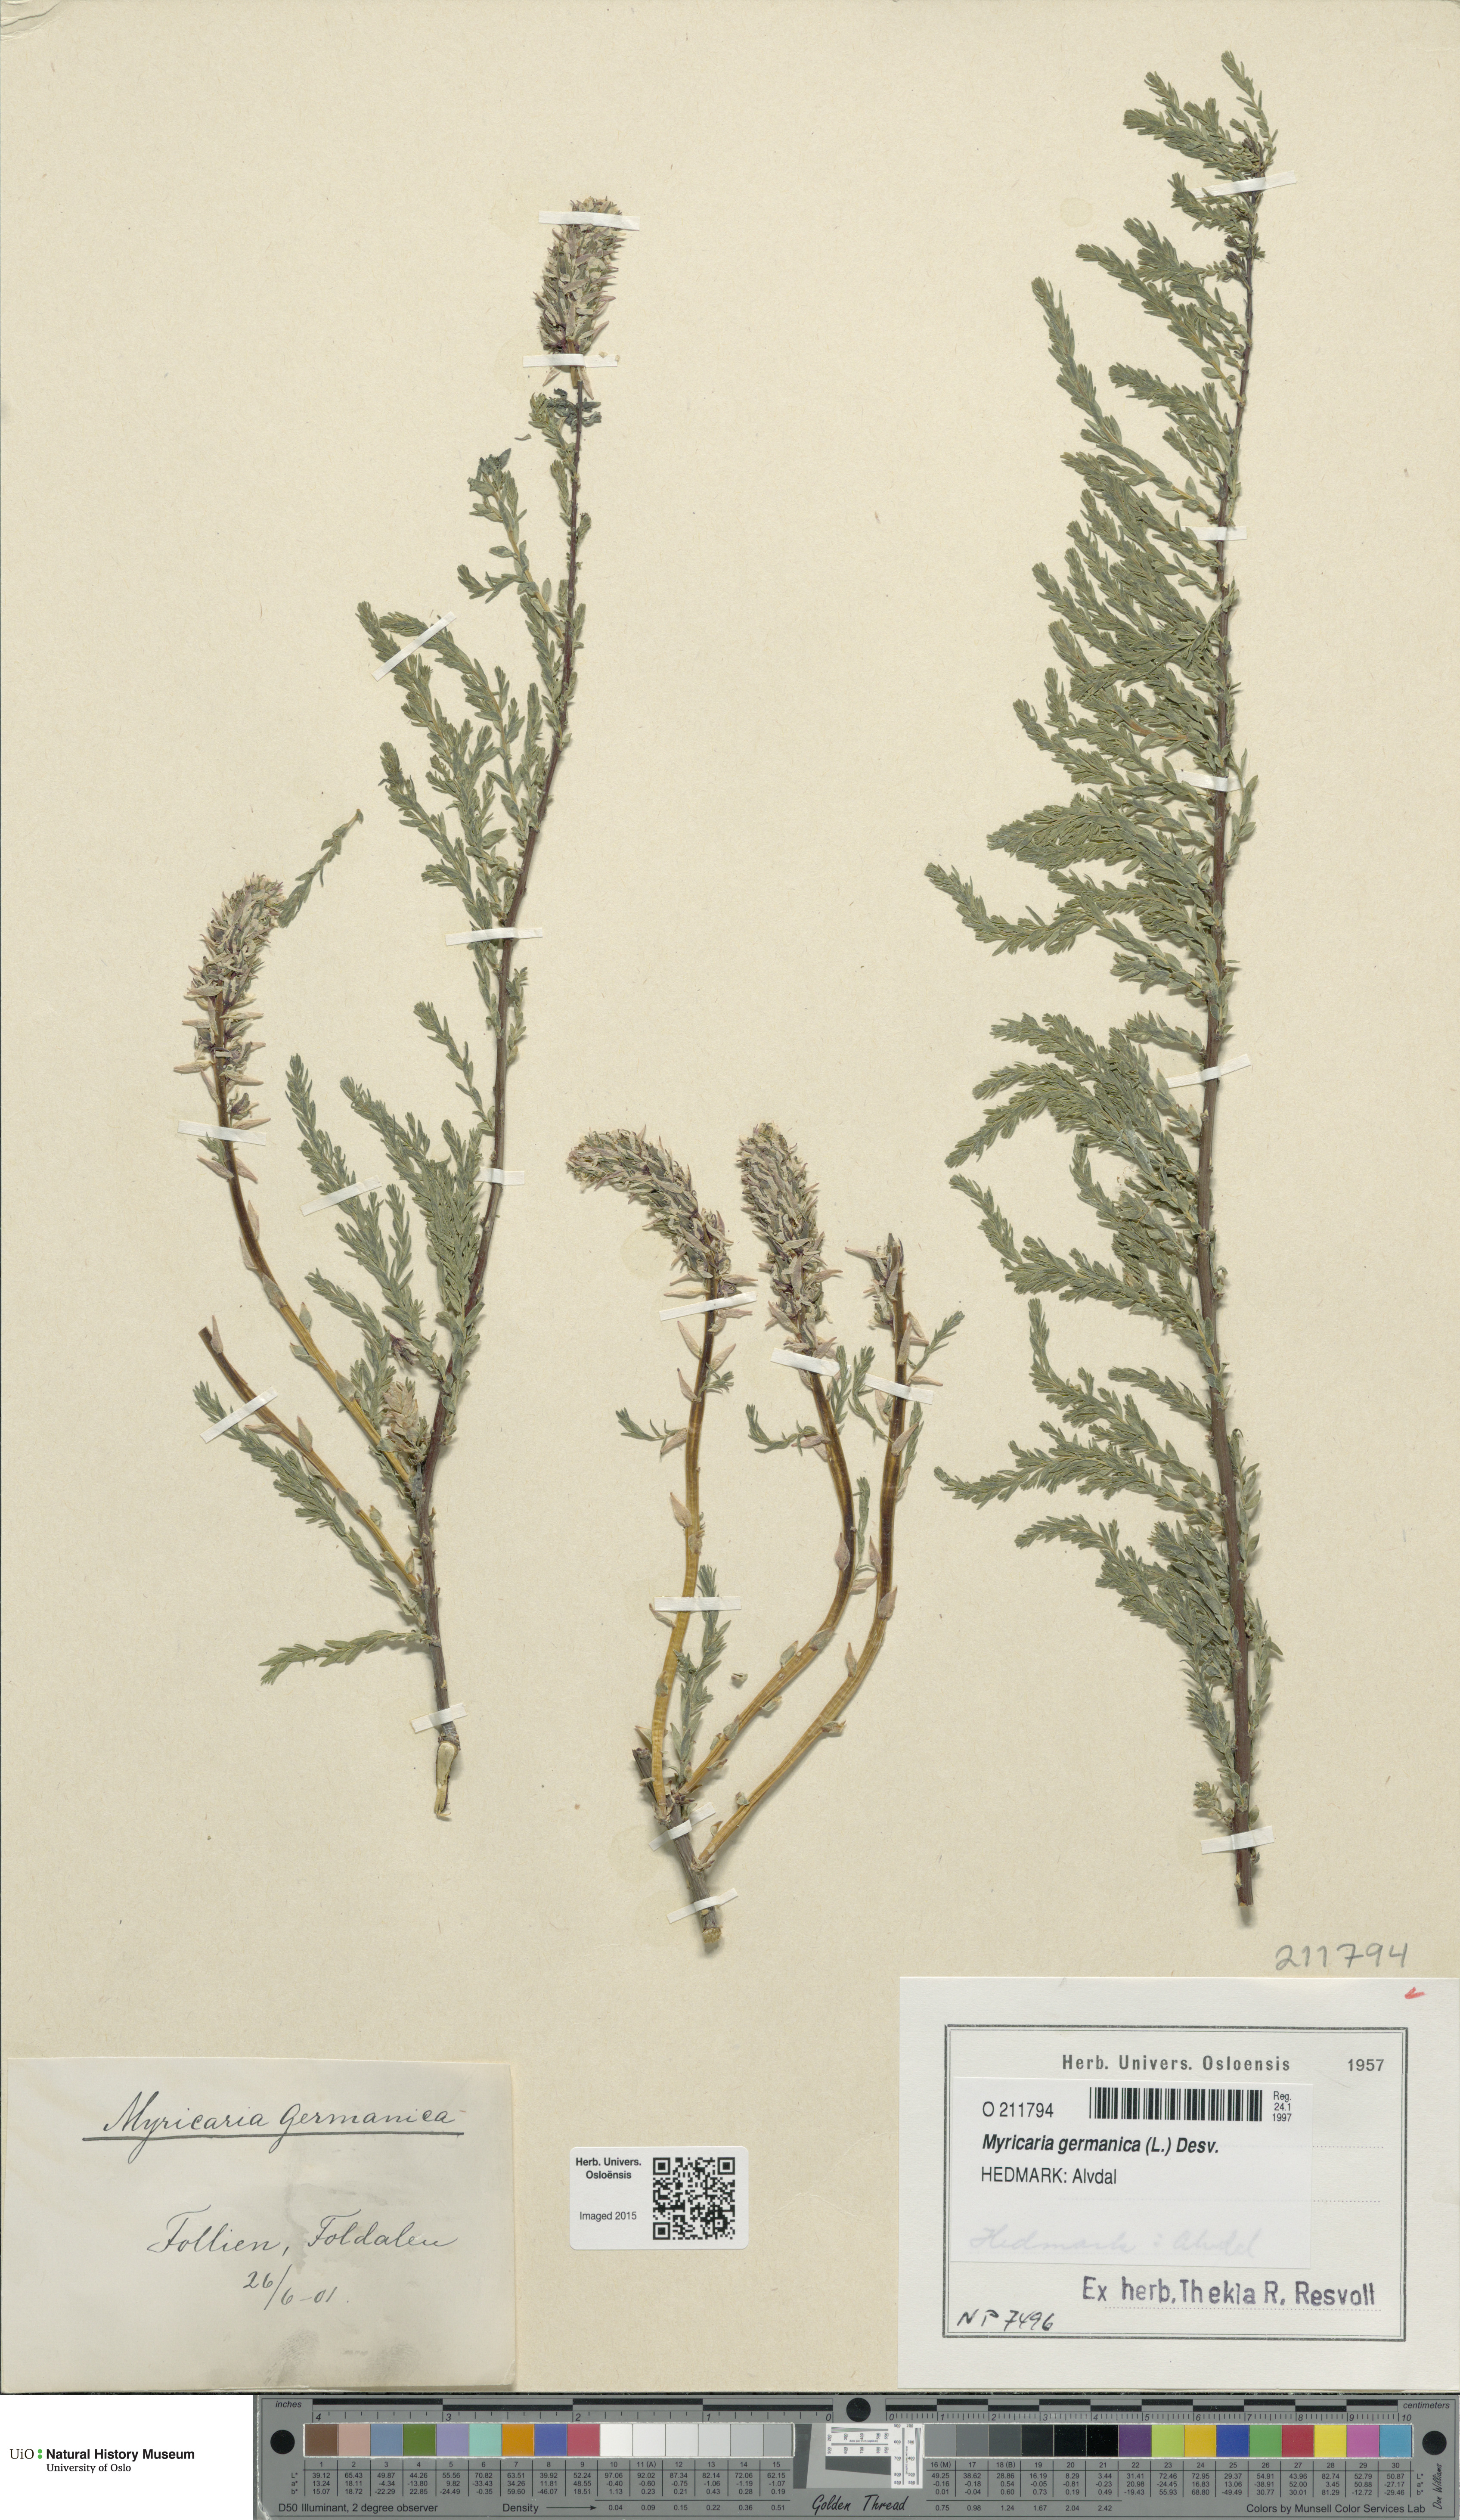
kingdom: Plantae
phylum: Tracheophyta
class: Magnoliopsida
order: Caryophyllales
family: Tamaricaceae
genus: Myricaria
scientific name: Myricaria germanica
